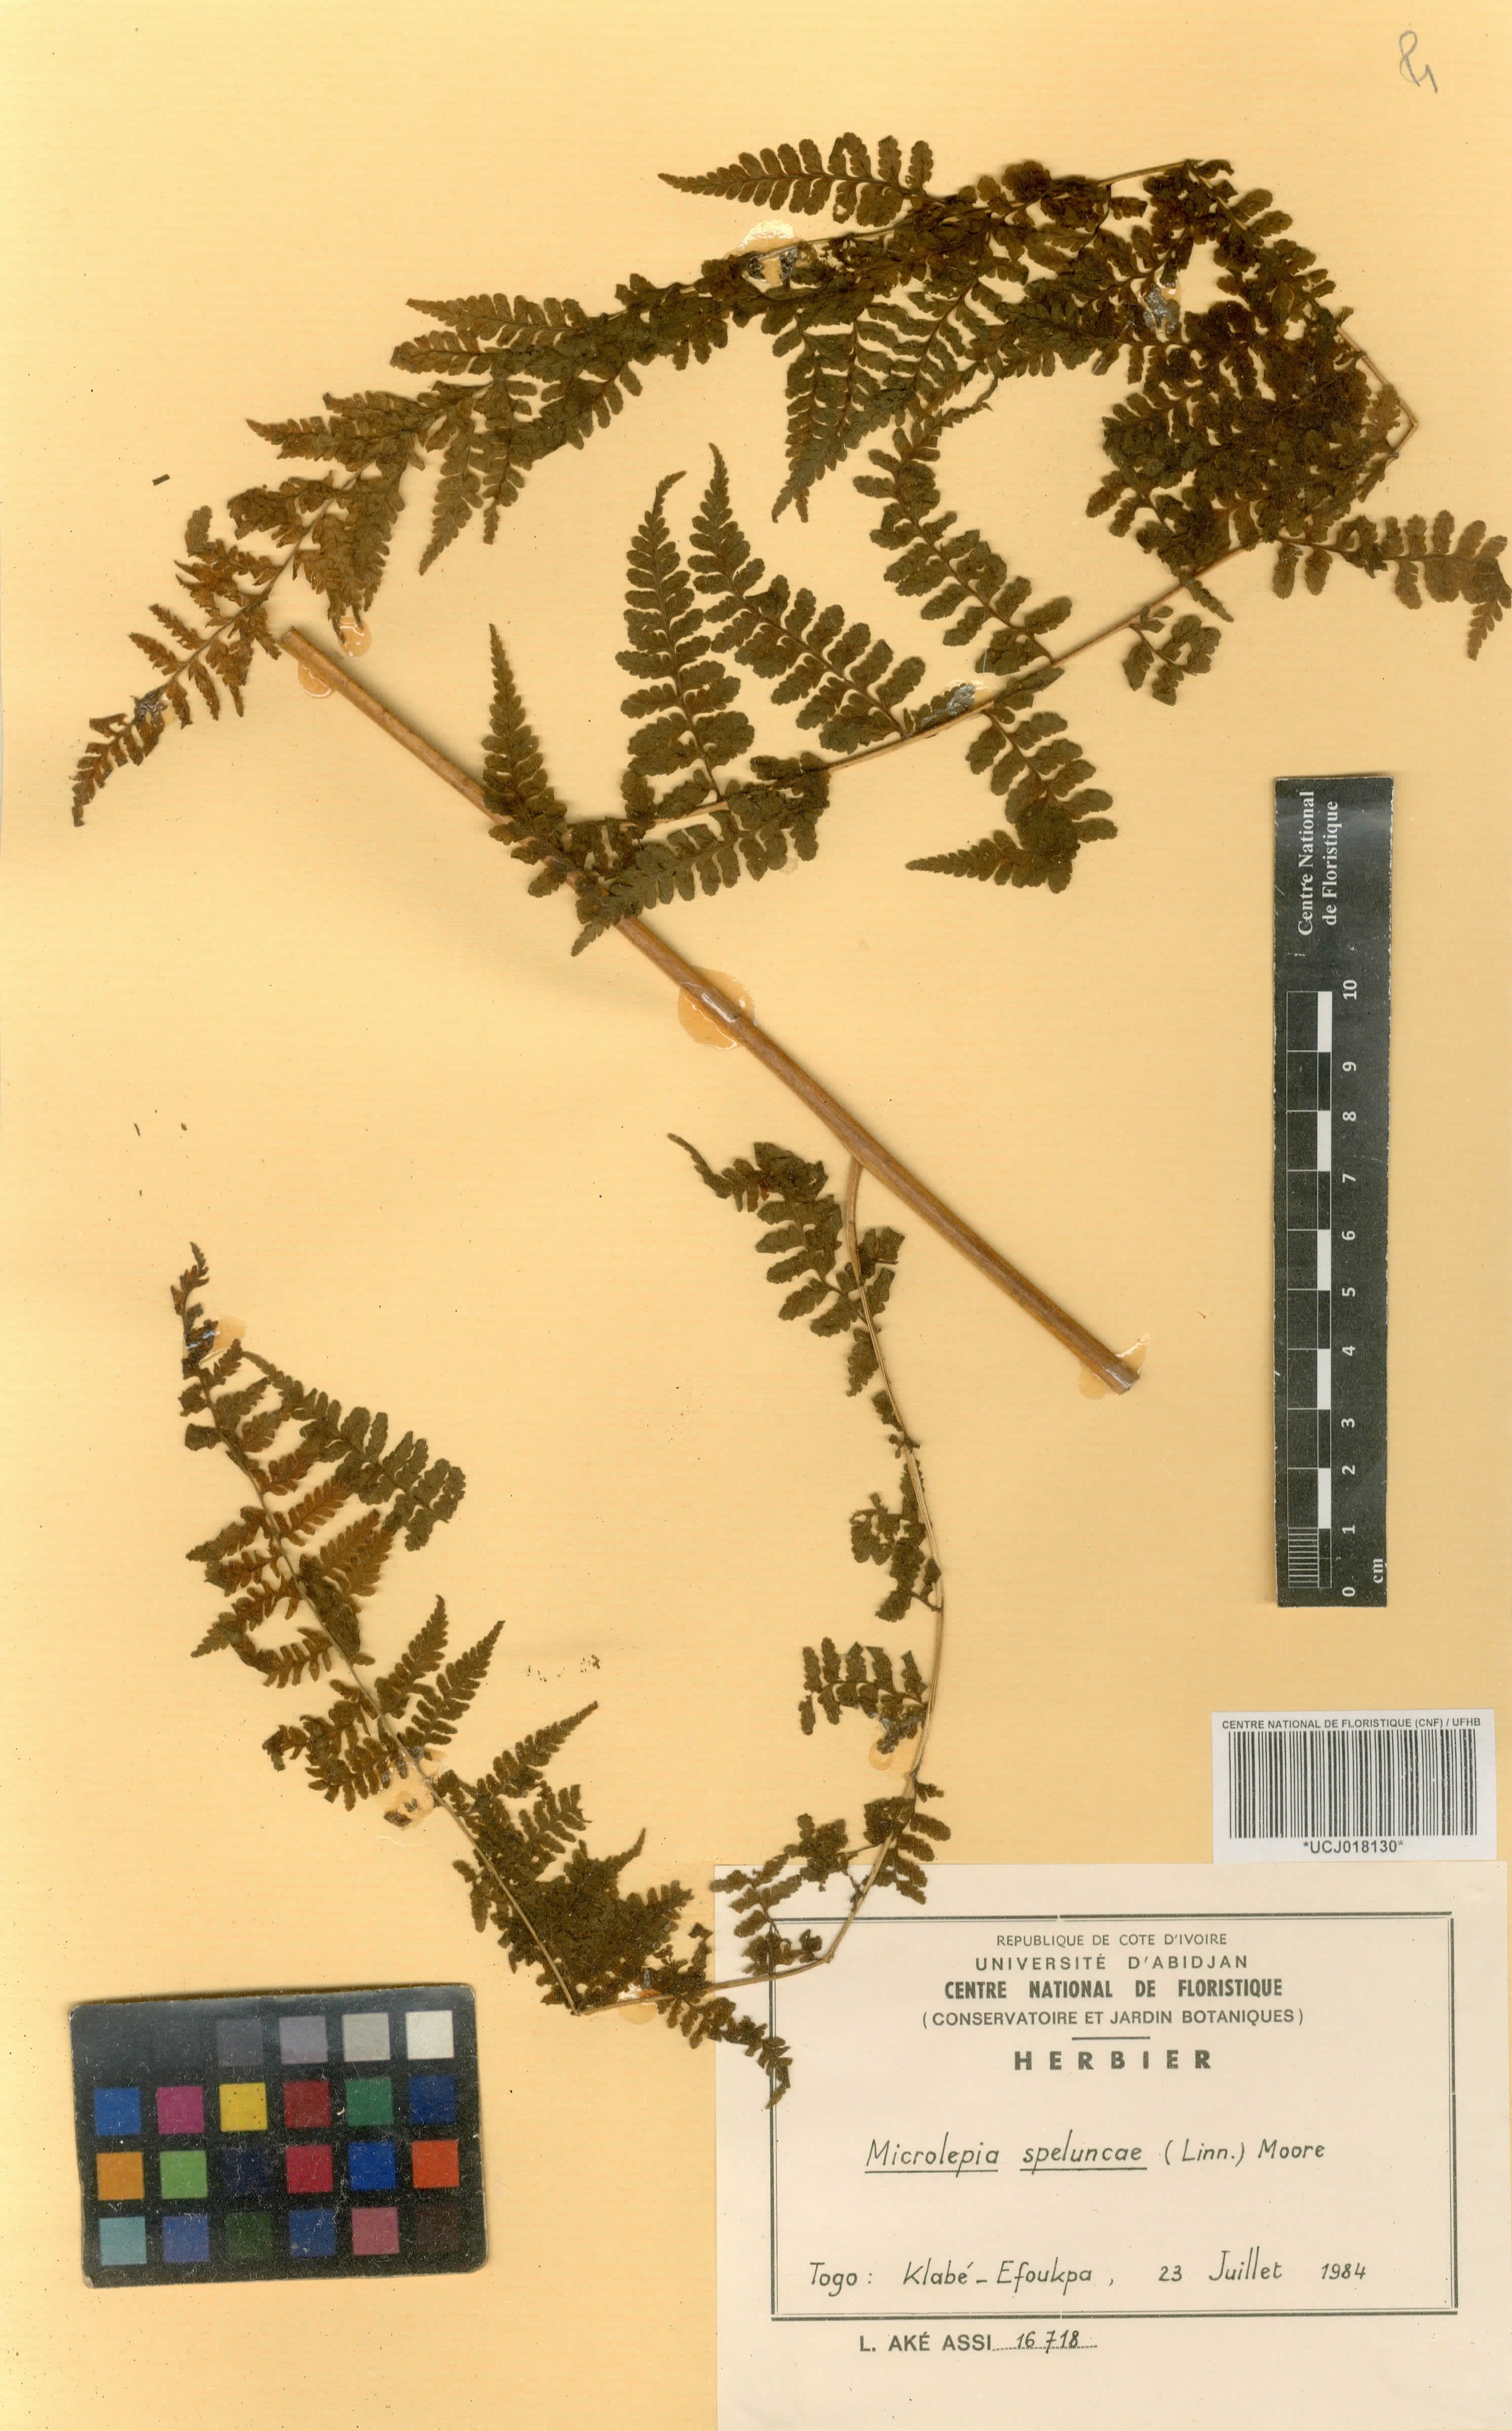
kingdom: Plantae
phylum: Tracheophyta
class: Polypodiopsida
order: Polypodiales
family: Dennstaedtiaceae
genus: Microlepia
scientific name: Microlepia speluncae
